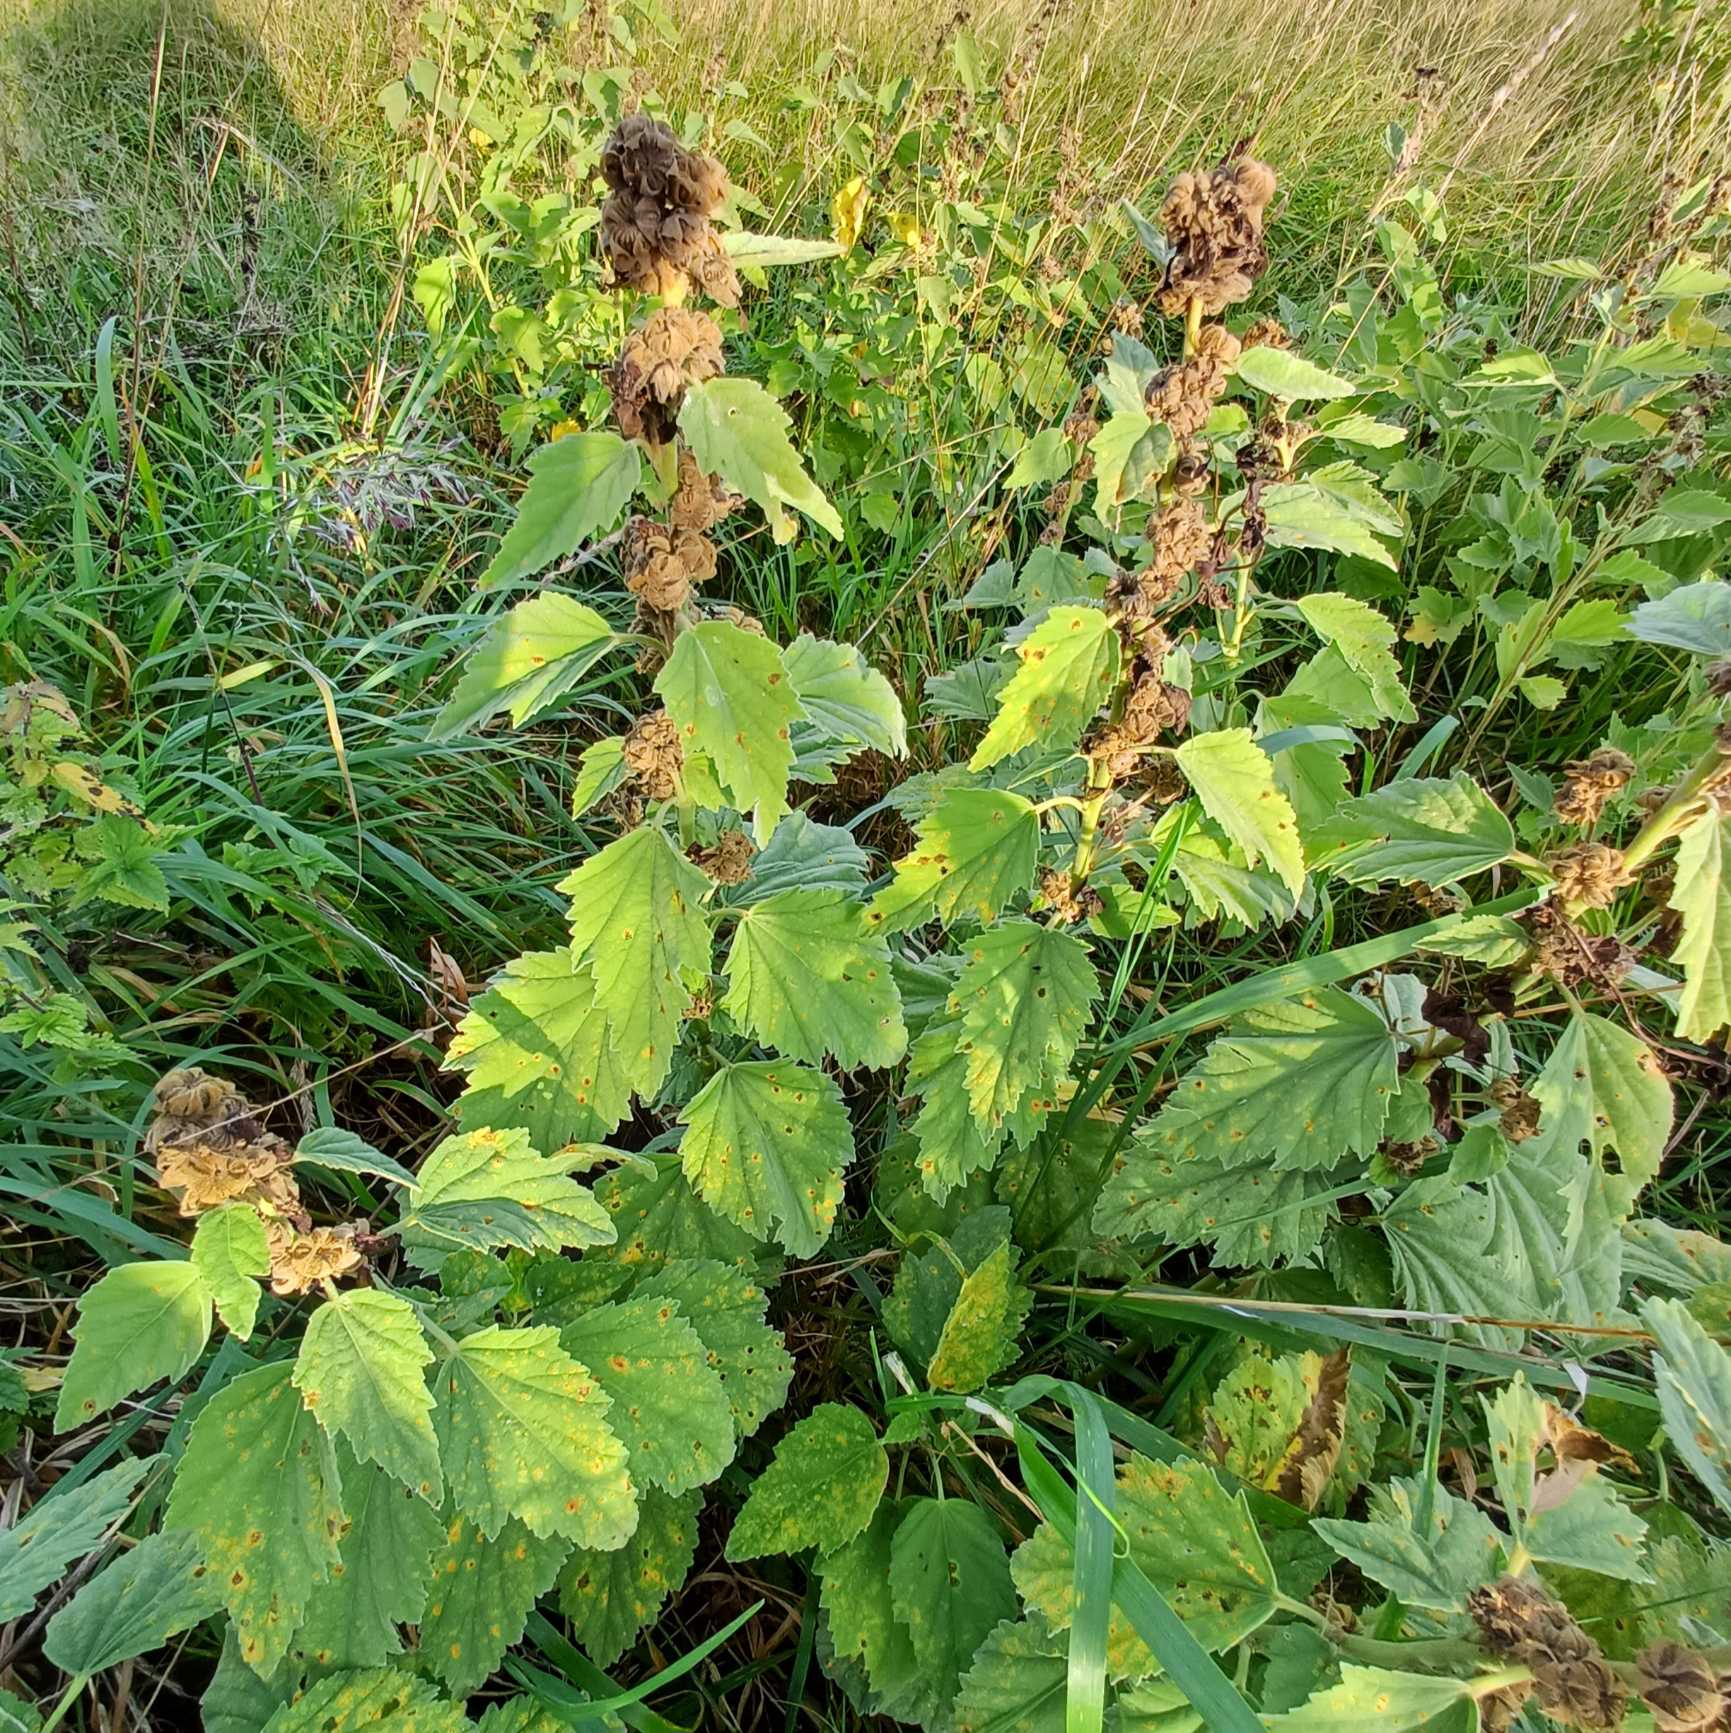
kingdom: Plantae
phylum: Tracheophyta
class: Magnoliopsida
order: Malvales
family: Malvaceae
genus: Althaea
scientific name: Althaea officinalis
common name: Lægestokrose
